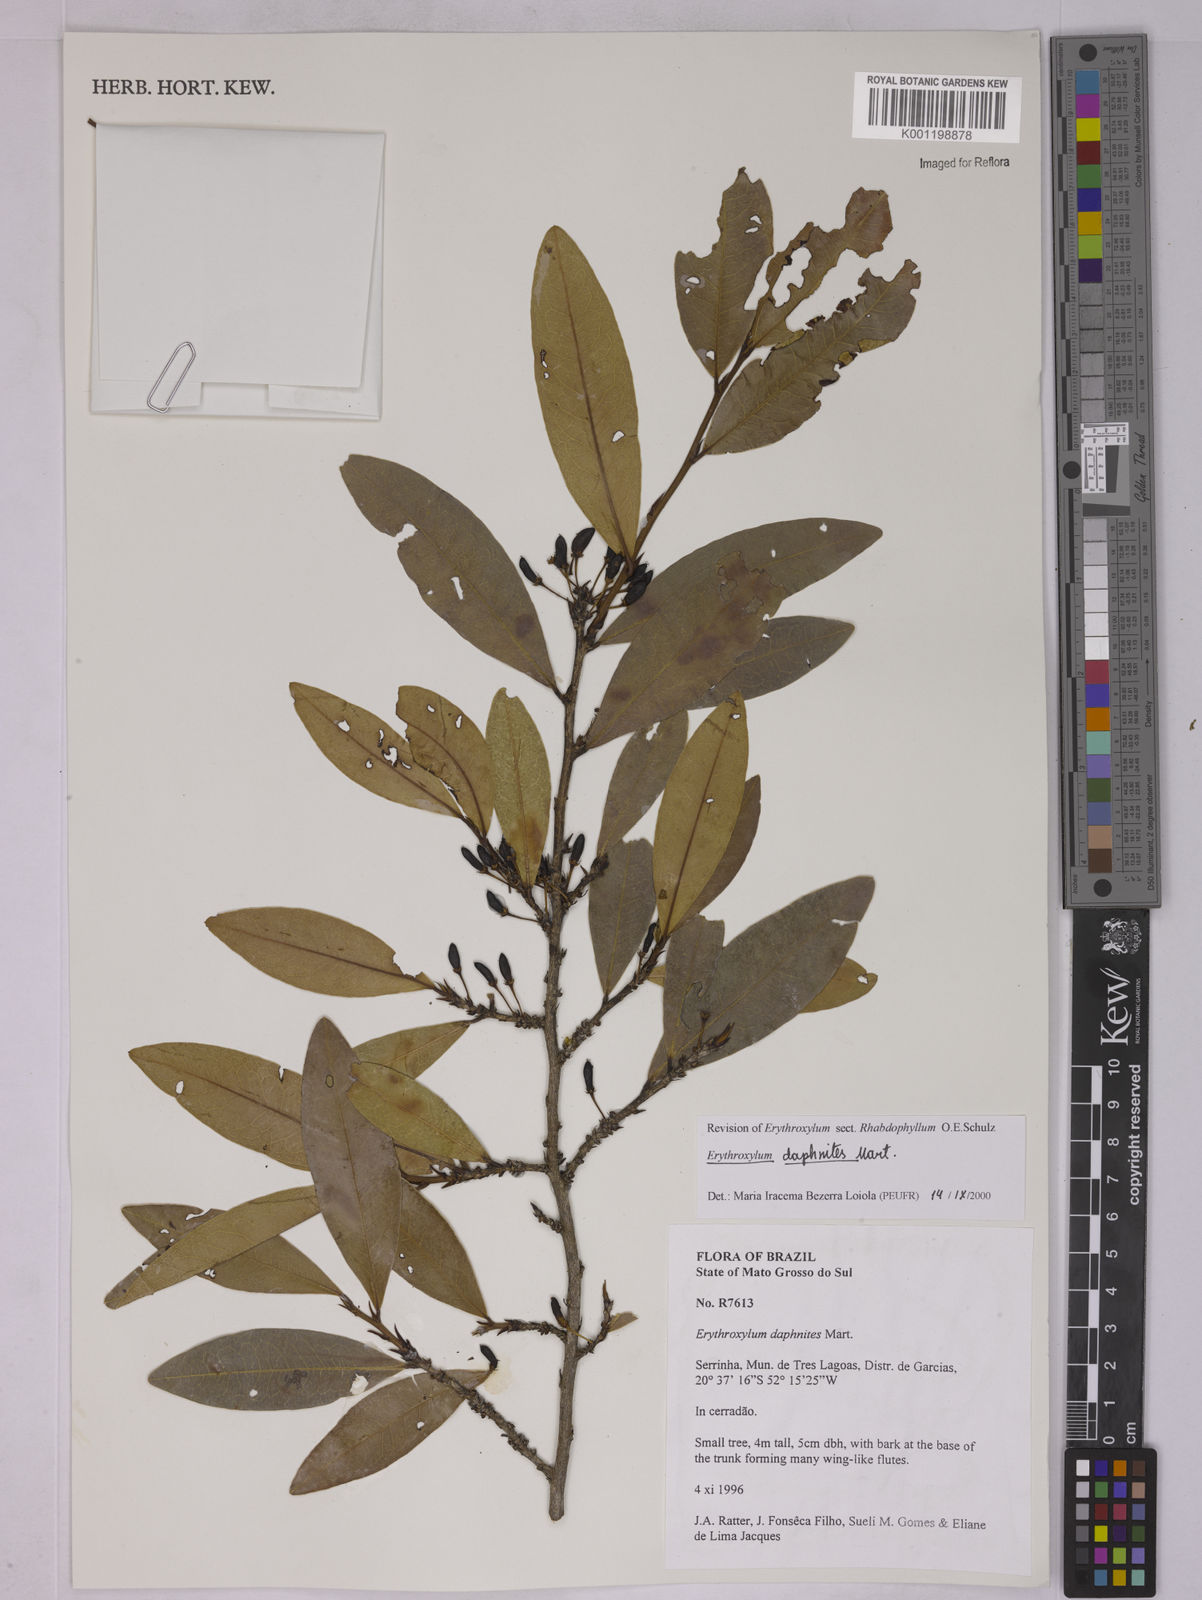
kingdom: Plantae
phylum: Tracheophyta
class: Magnoliopsida
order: Malpighiales
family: Erythroxylaceae
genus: Erythroxylum
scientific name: Erythroxylum daphnites
